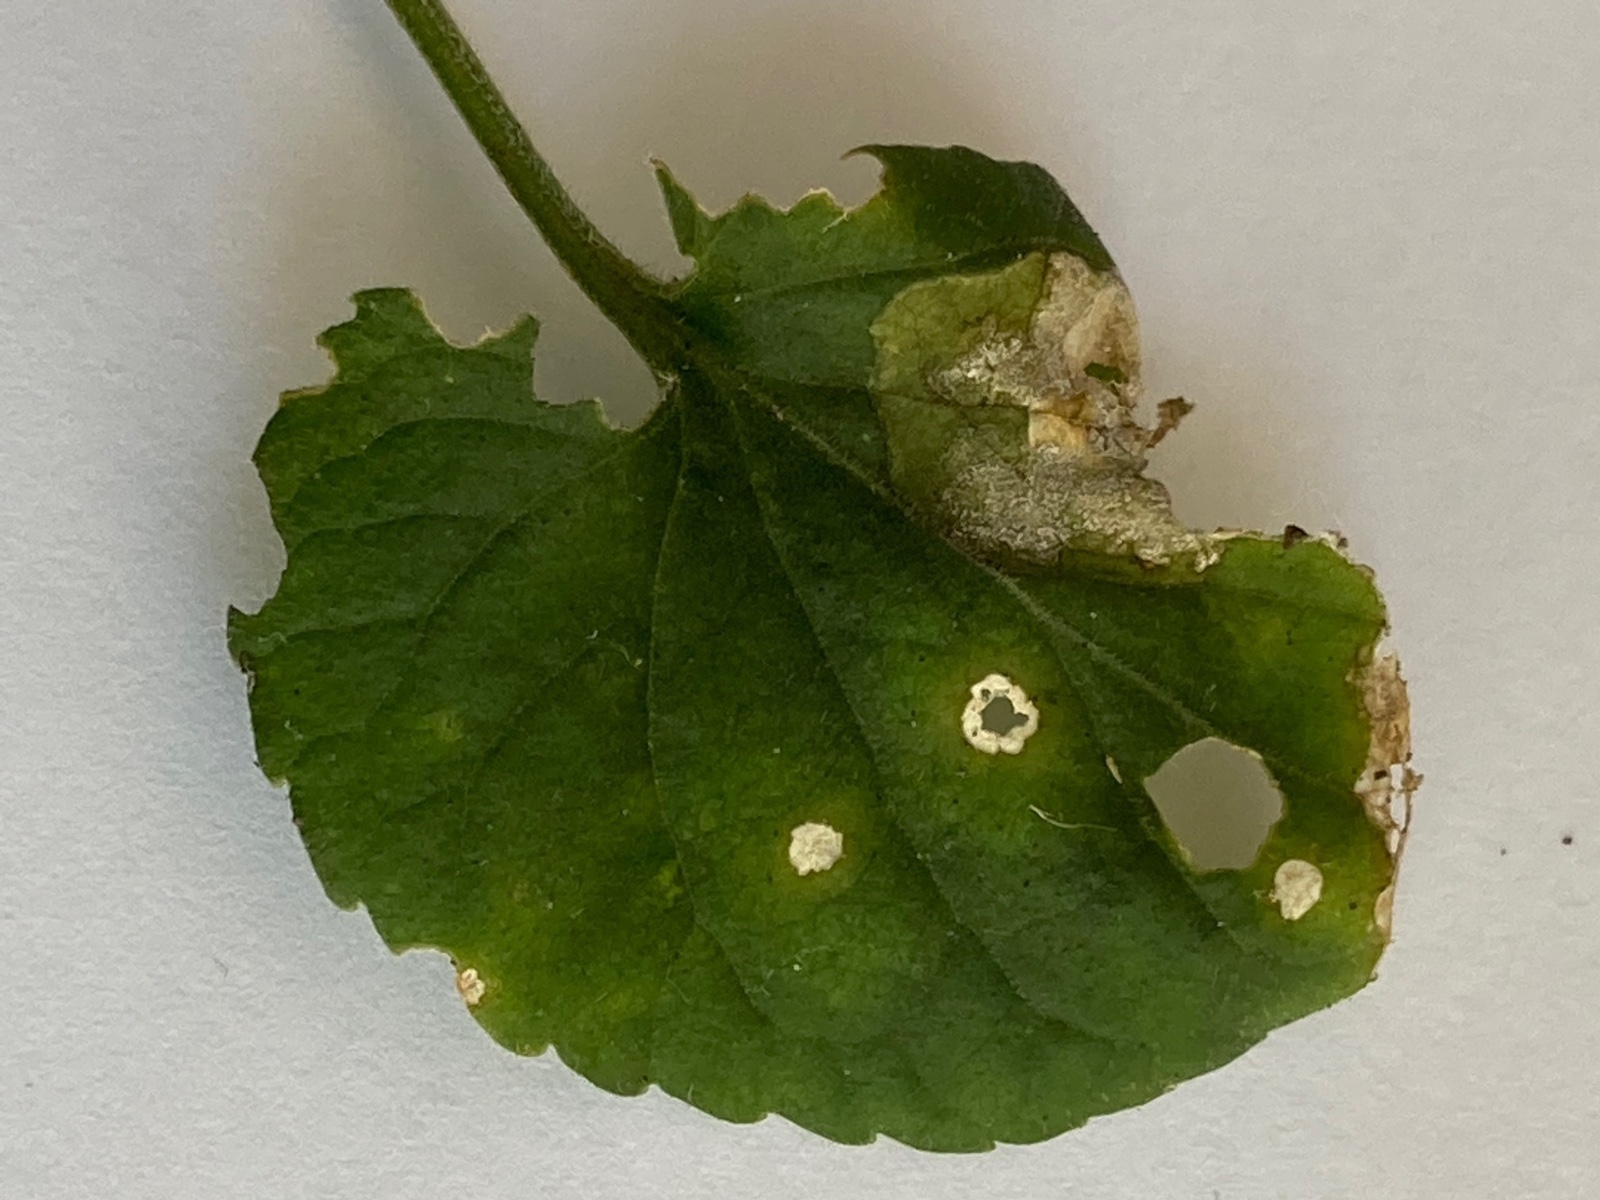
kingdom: Fungi
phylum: Ascomycota
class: Dothideomycetes
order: Mycosphaerellales
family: Mycosphaerellaceae
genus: Ramularia
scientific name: Ramularia lactea
